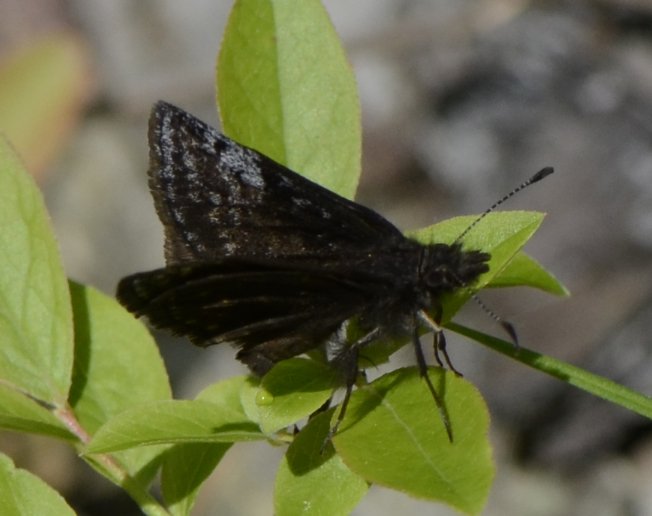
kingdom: Animalia
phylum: Arthropoda
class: Insecta
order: Lepidoptera
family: Hesperiidae
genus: Erynnis
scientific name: Erynnis icelus
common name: Dreamy Duskywing
